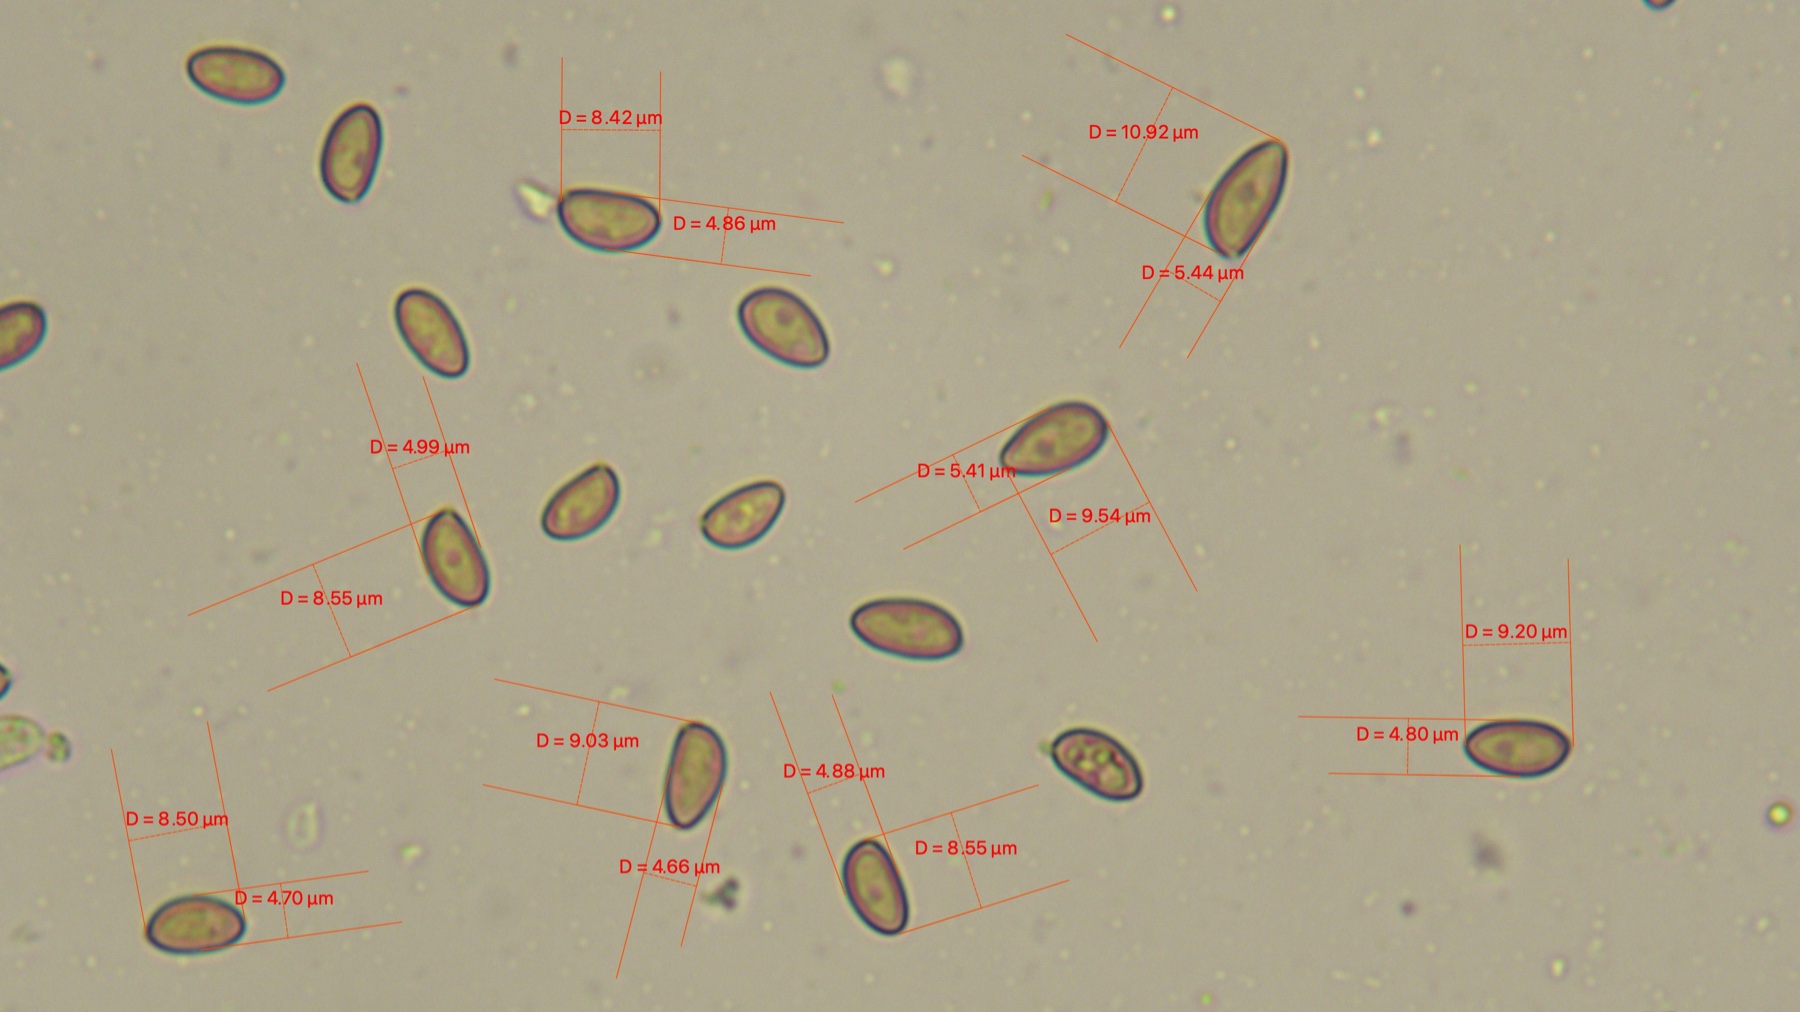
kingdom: Fungi
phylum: Basidiomycota
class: Agaricomycetes
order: Agaricales
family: Inocybaceae
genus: Inocybe
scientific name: Inocybe
